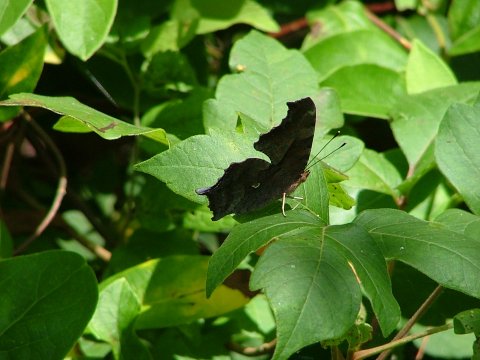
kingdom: Animalia
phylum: Arthropoda
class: Insecta
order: Lepidoptera
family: Nymphalidae
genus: Polygonia
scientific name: Polygonia interrogationis
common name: Question Mark
